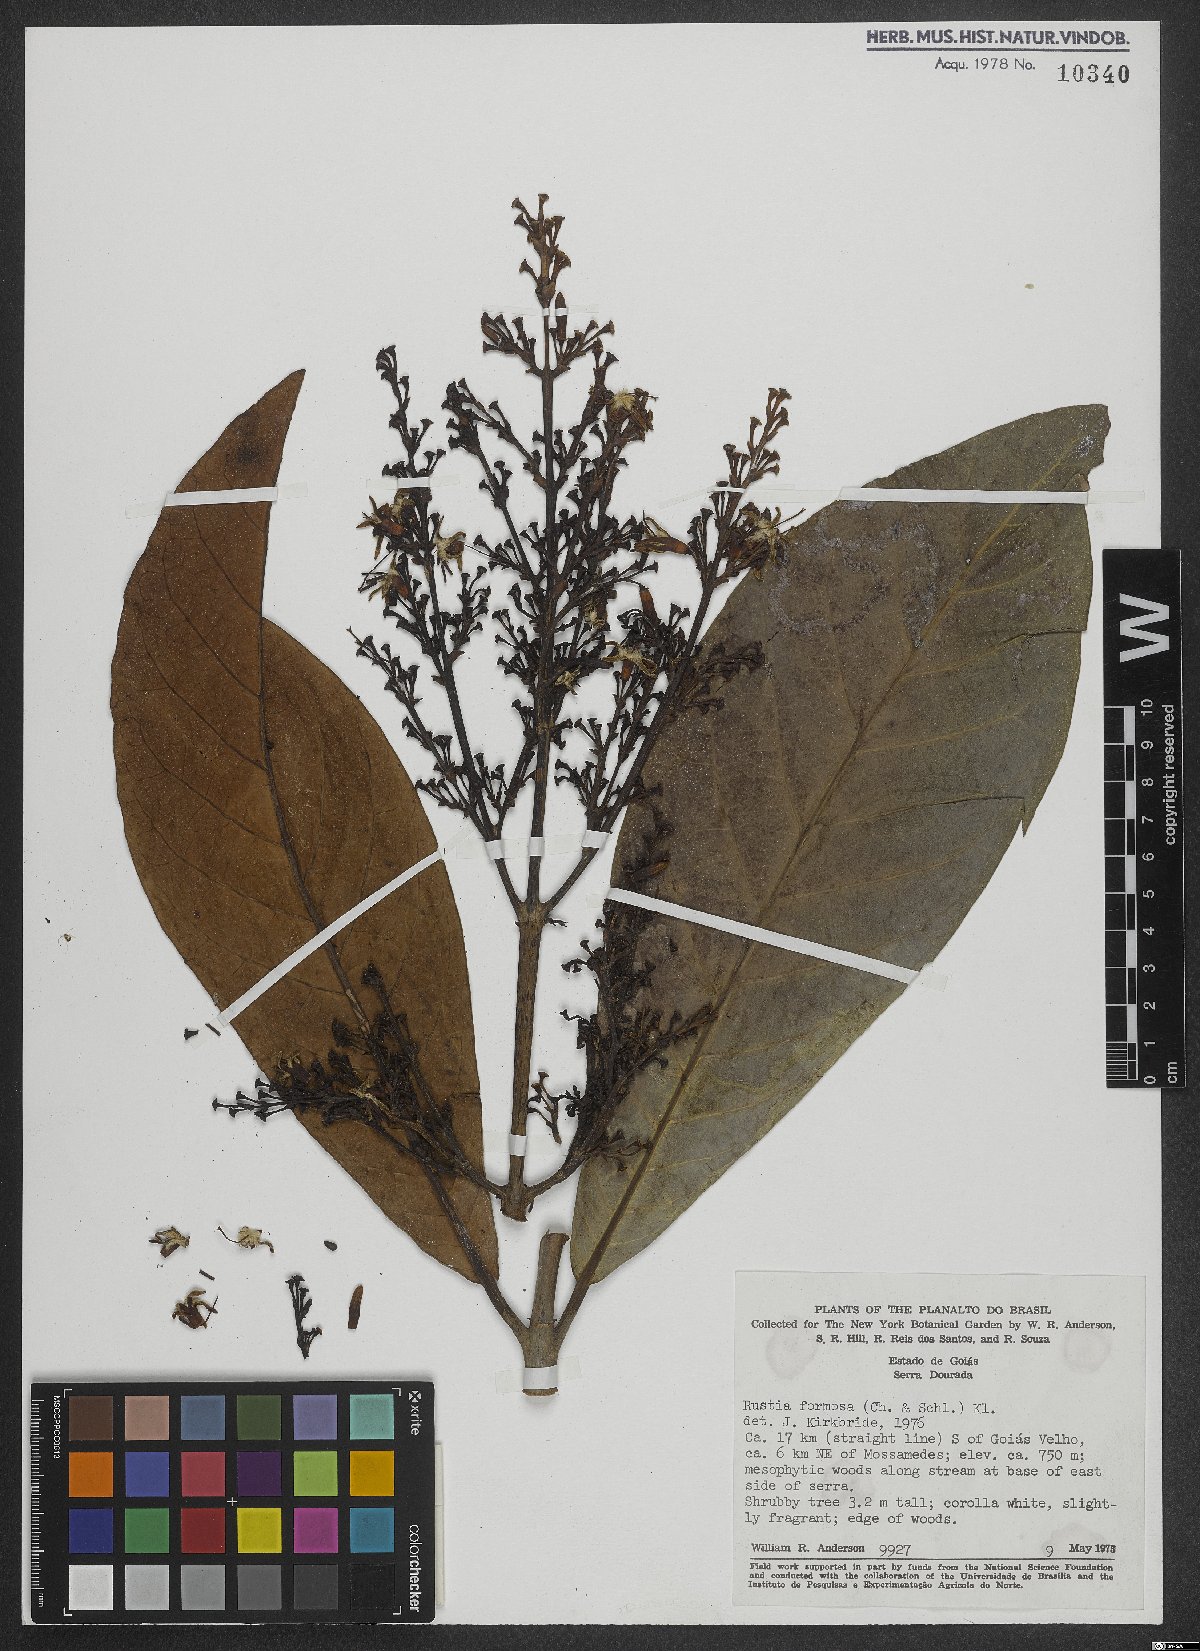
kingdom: Plantae
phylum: Tracheophyta
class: Magnoliopsida
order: Gentianales
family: Rubiaceae
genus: Rustia
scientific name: Rustia formosa
